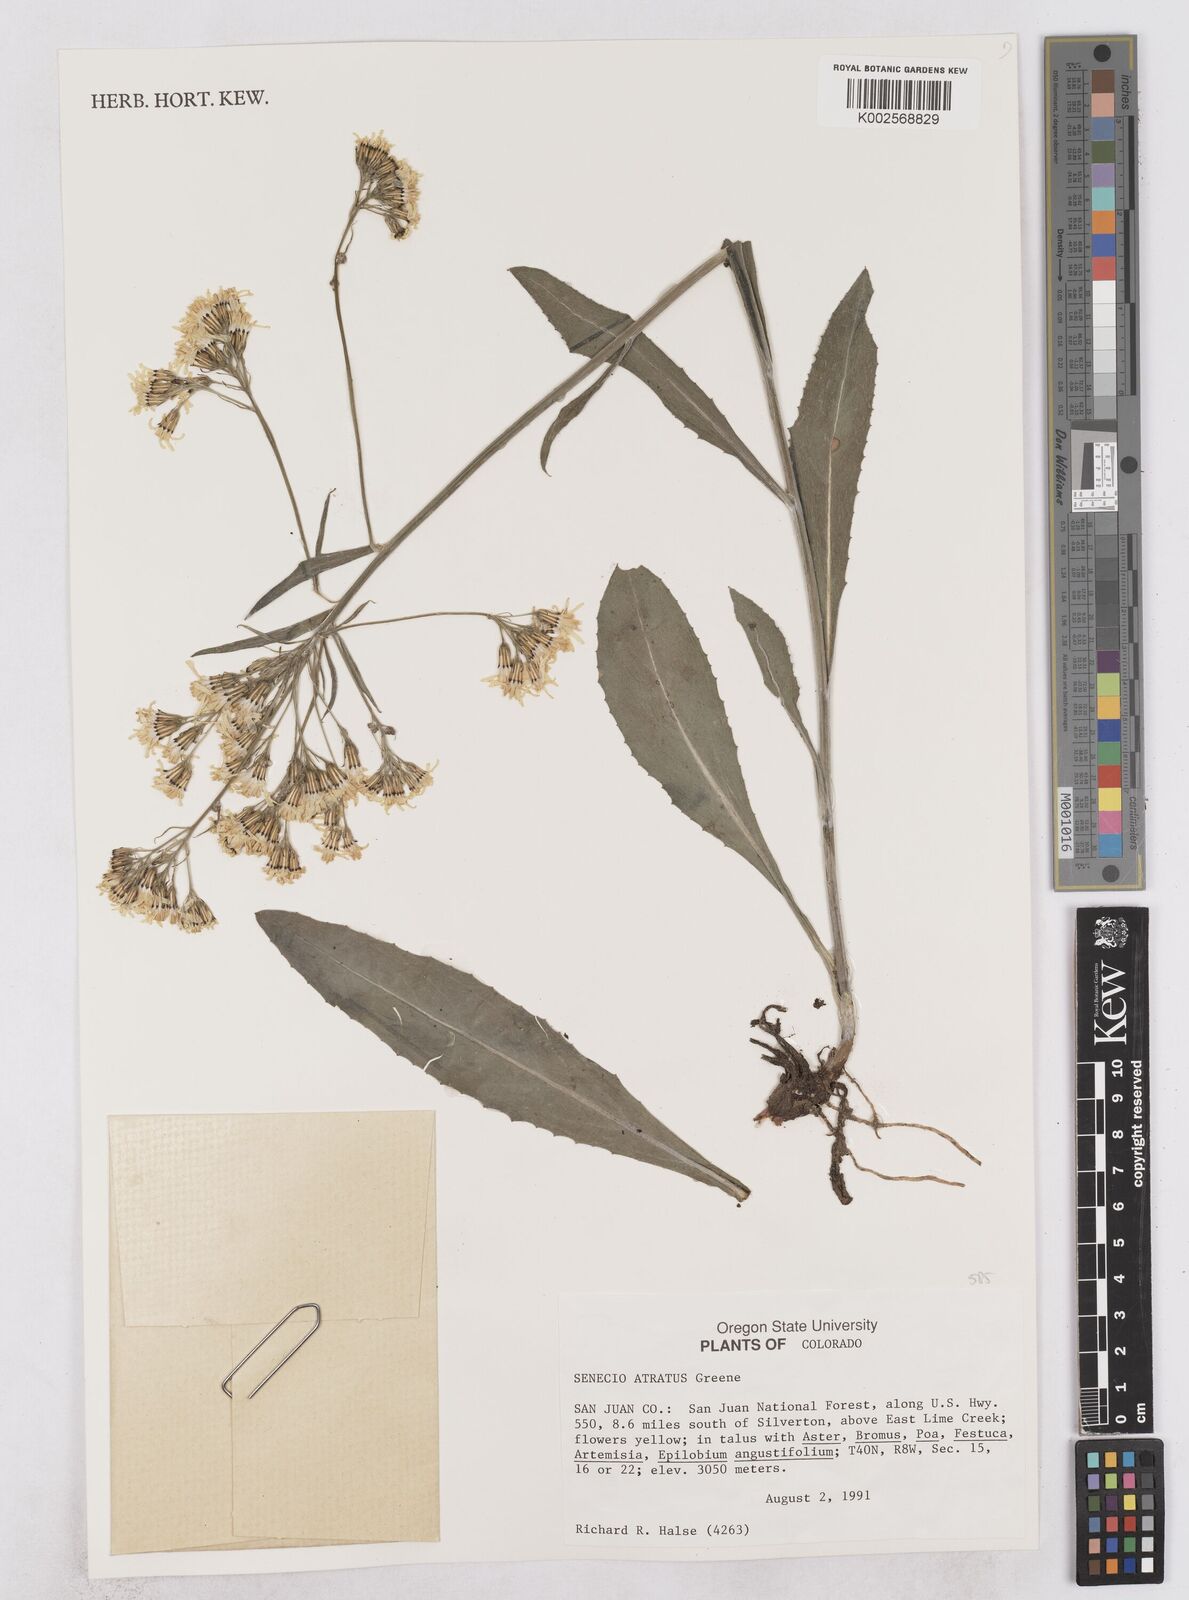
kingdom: Plantae
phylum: Tracheophyta
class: Magnoliopsida
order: Asterales
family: Asteraceae
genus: Senecio
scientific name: Senecio atratus
